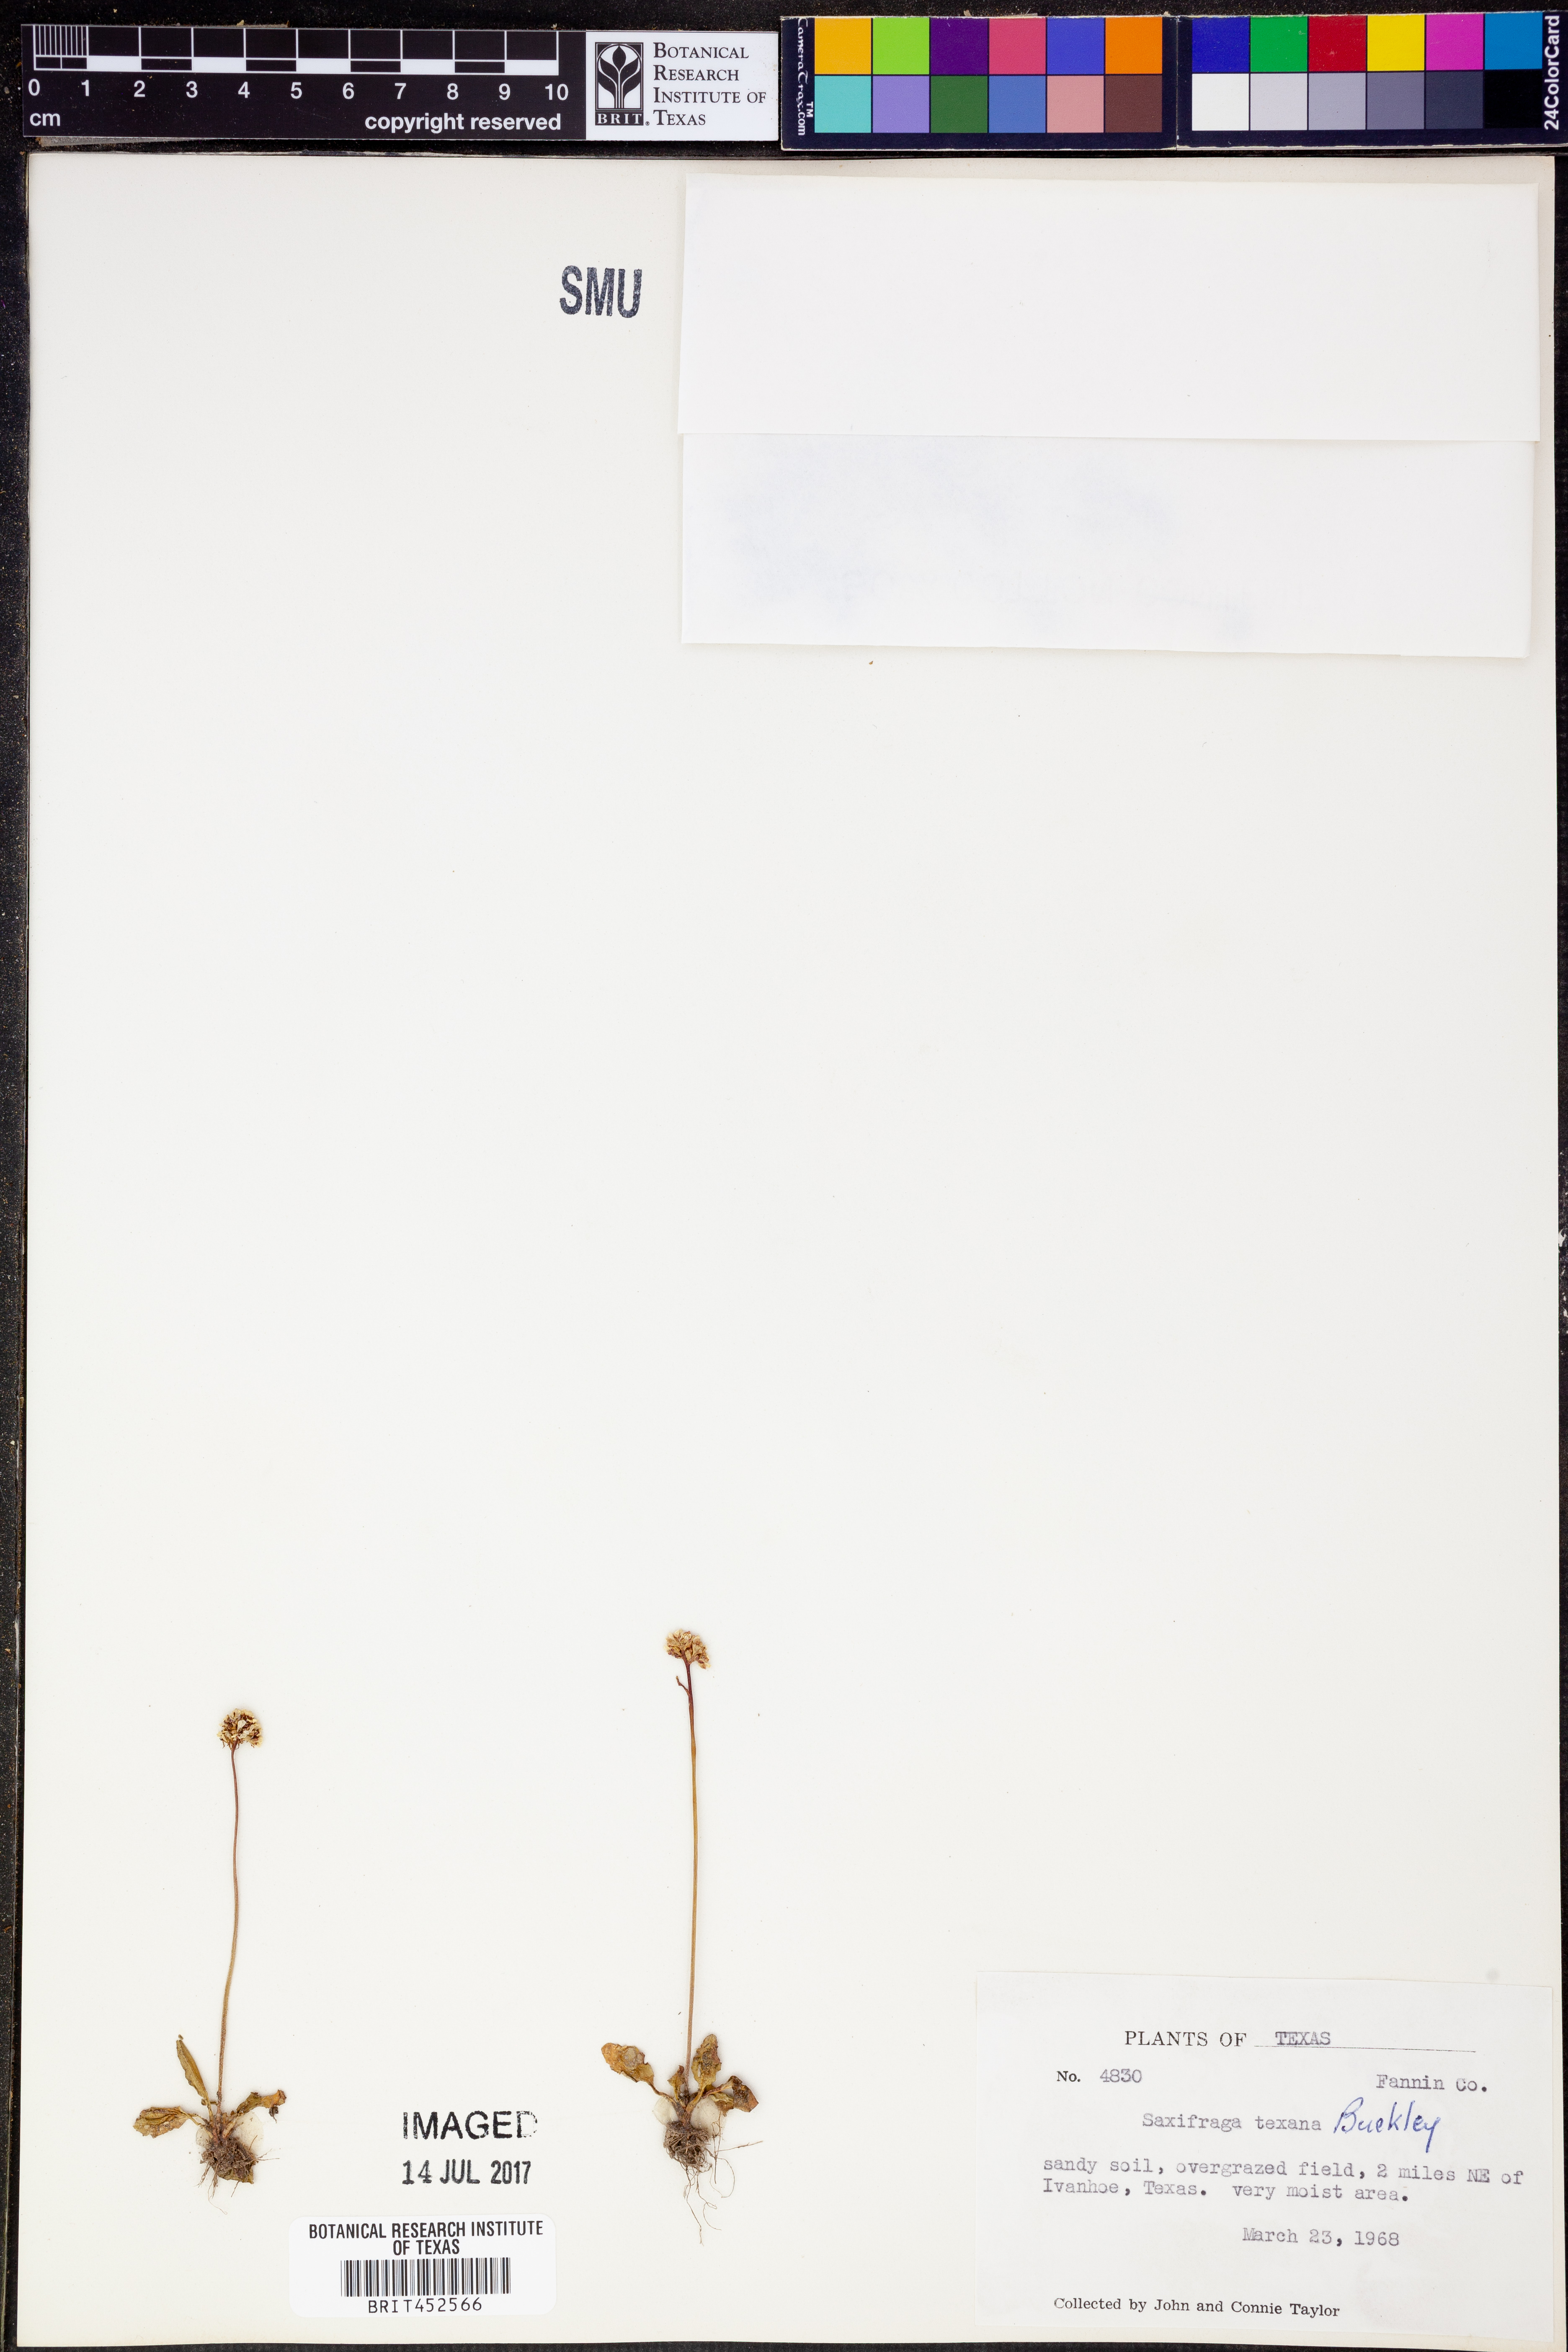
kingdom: Plantae
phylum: Tracheophyta
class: Magnoliopsida
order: Saxifragales
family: Saxifragaceae
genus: Micranthes
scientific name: Micranthes texana
